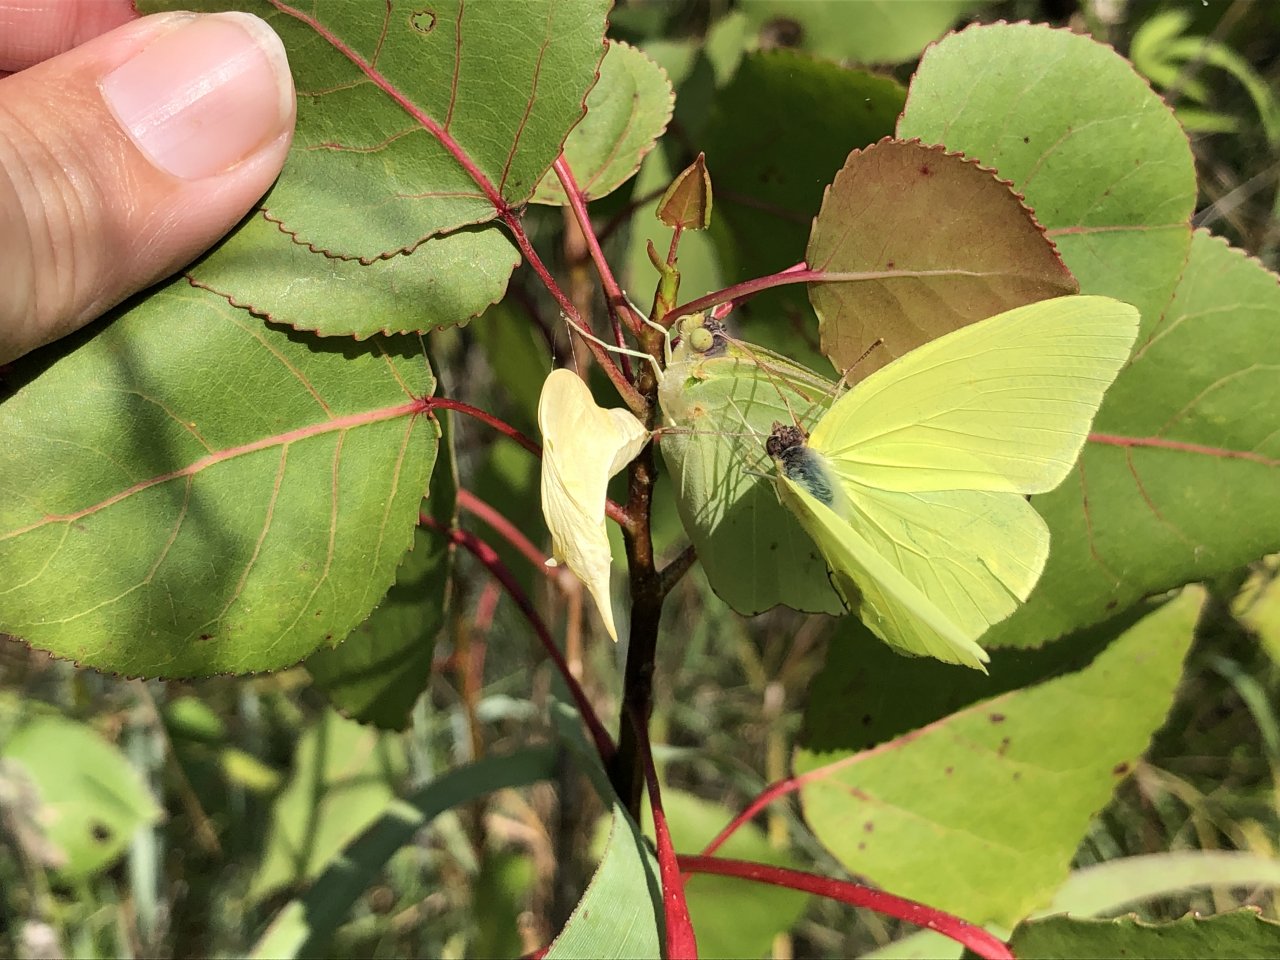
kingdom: Animalia
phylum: Arthropoda
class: Insecta
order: Lepidoptera
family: Pieridae
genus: Phoebis
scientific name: Phoebis sennae
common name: Cloudless Sulphur
